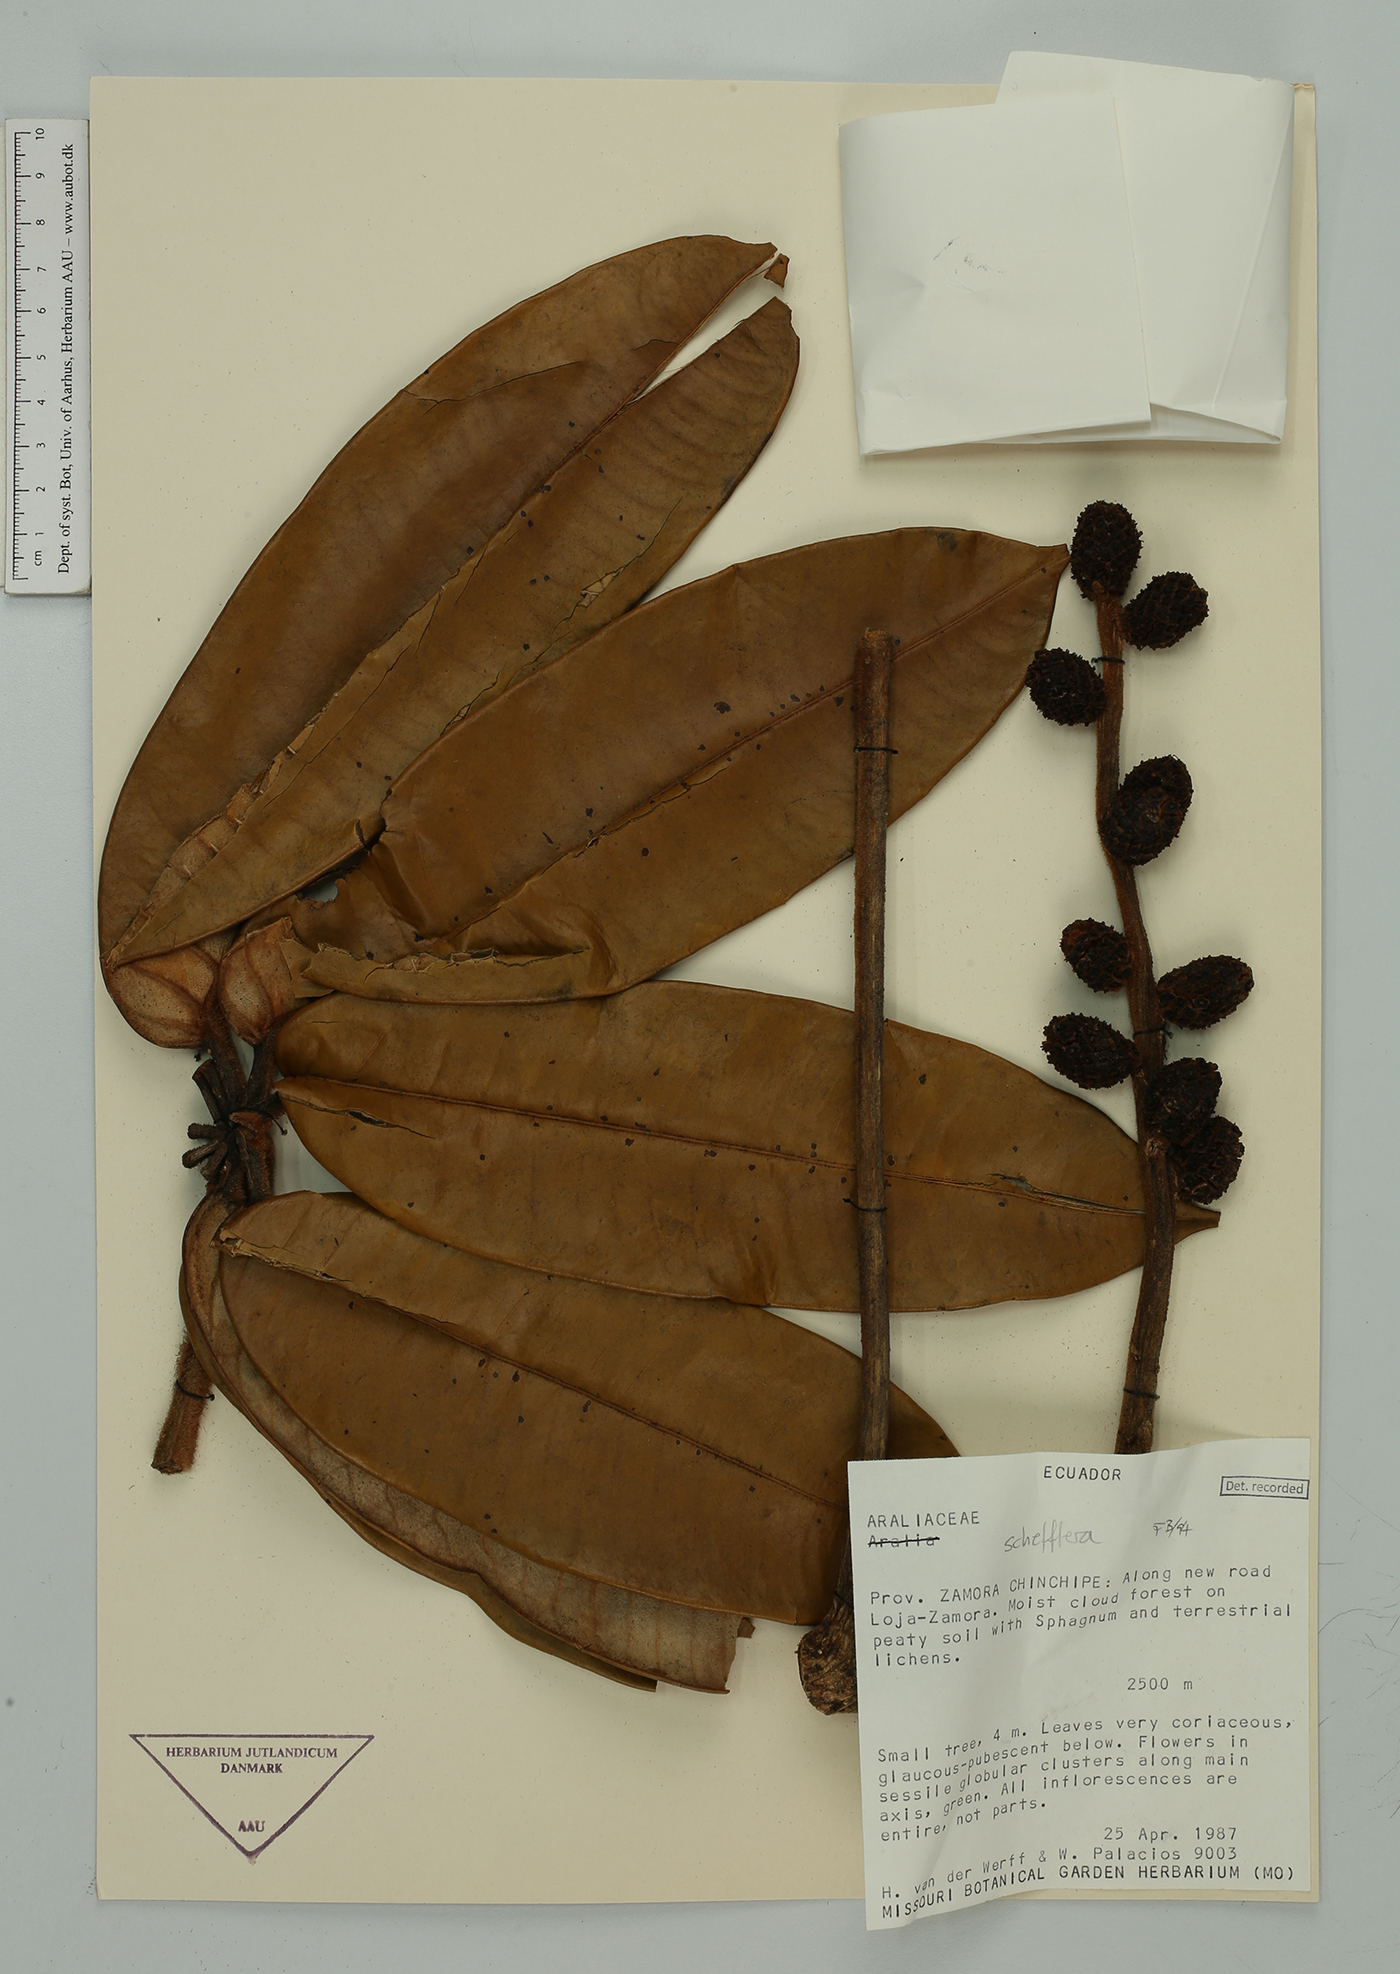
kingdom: Plantae
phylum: Tracheophyta
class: Magnoliopsida
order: Apiales
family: Araliaceae
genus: Sciodaphyllum
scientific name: Sciodaphyllum
